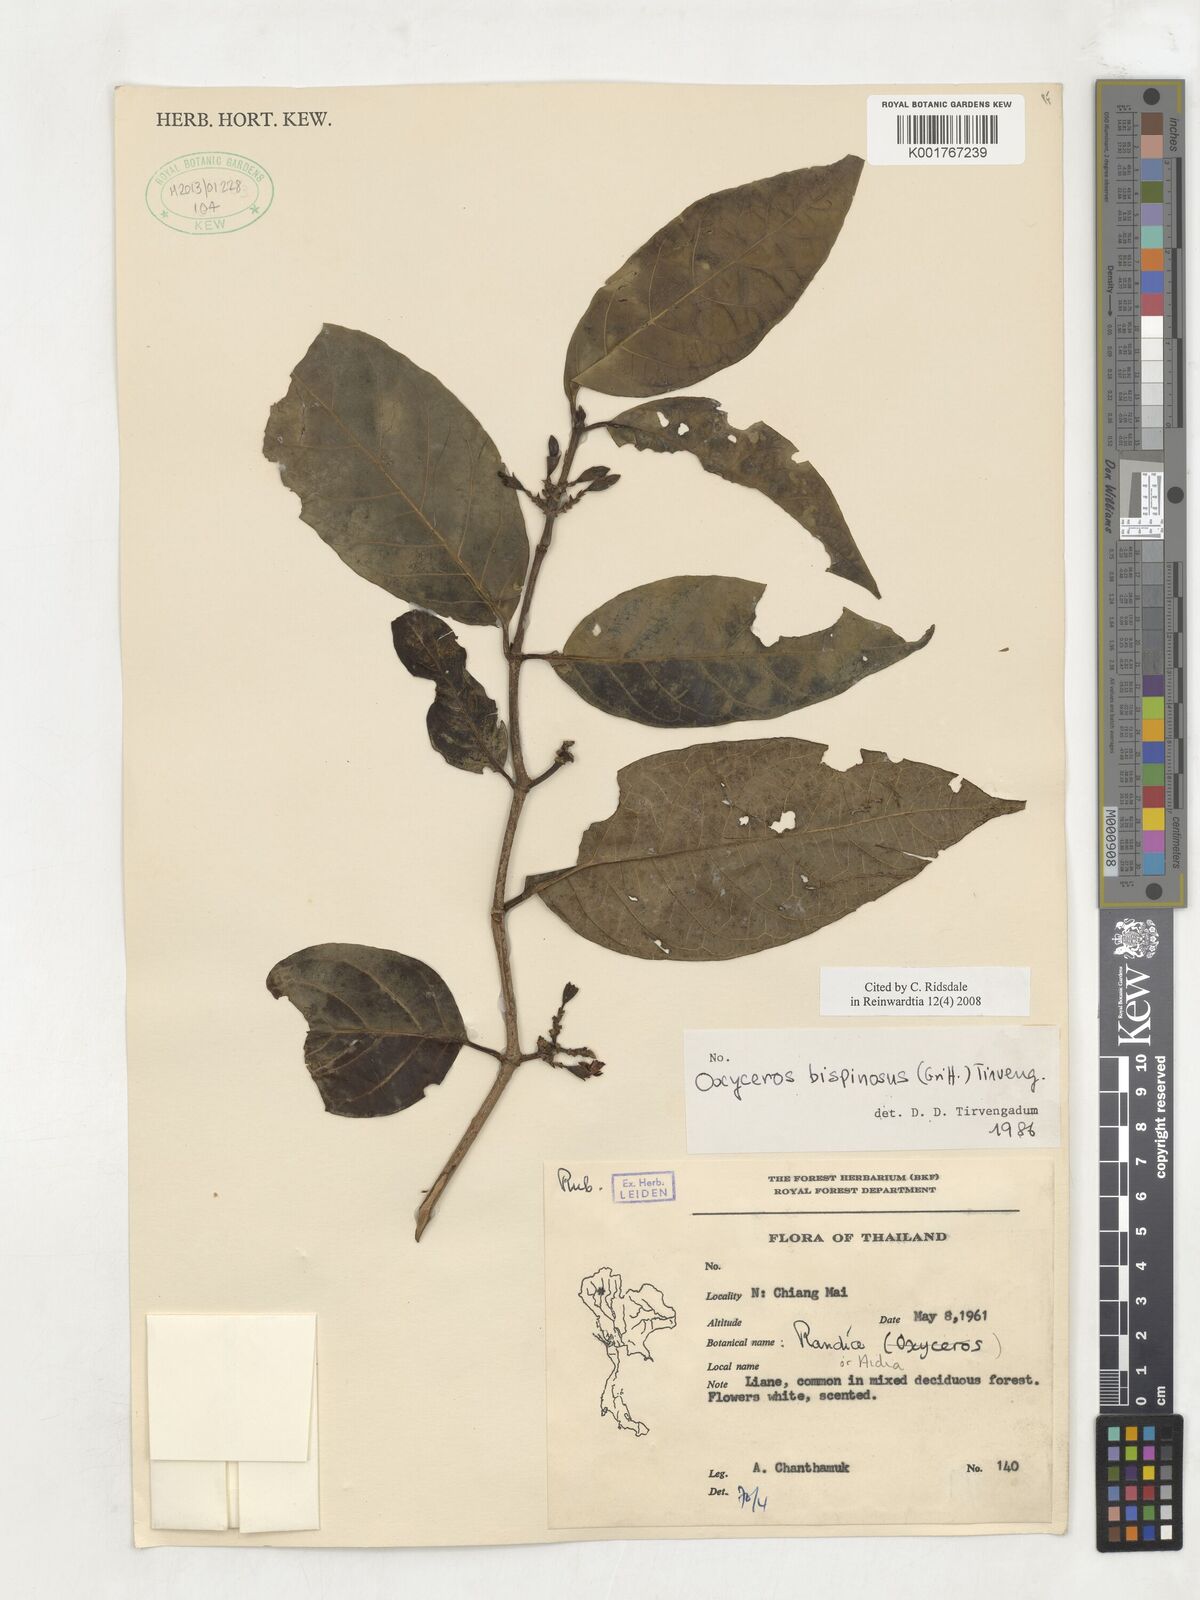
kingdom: Plantae
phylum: Tracheophyta
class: Magnoliopsida
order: Gentianales
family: Rubiaceae
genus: Oxyceros
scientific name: Oxyceros bispinosus
